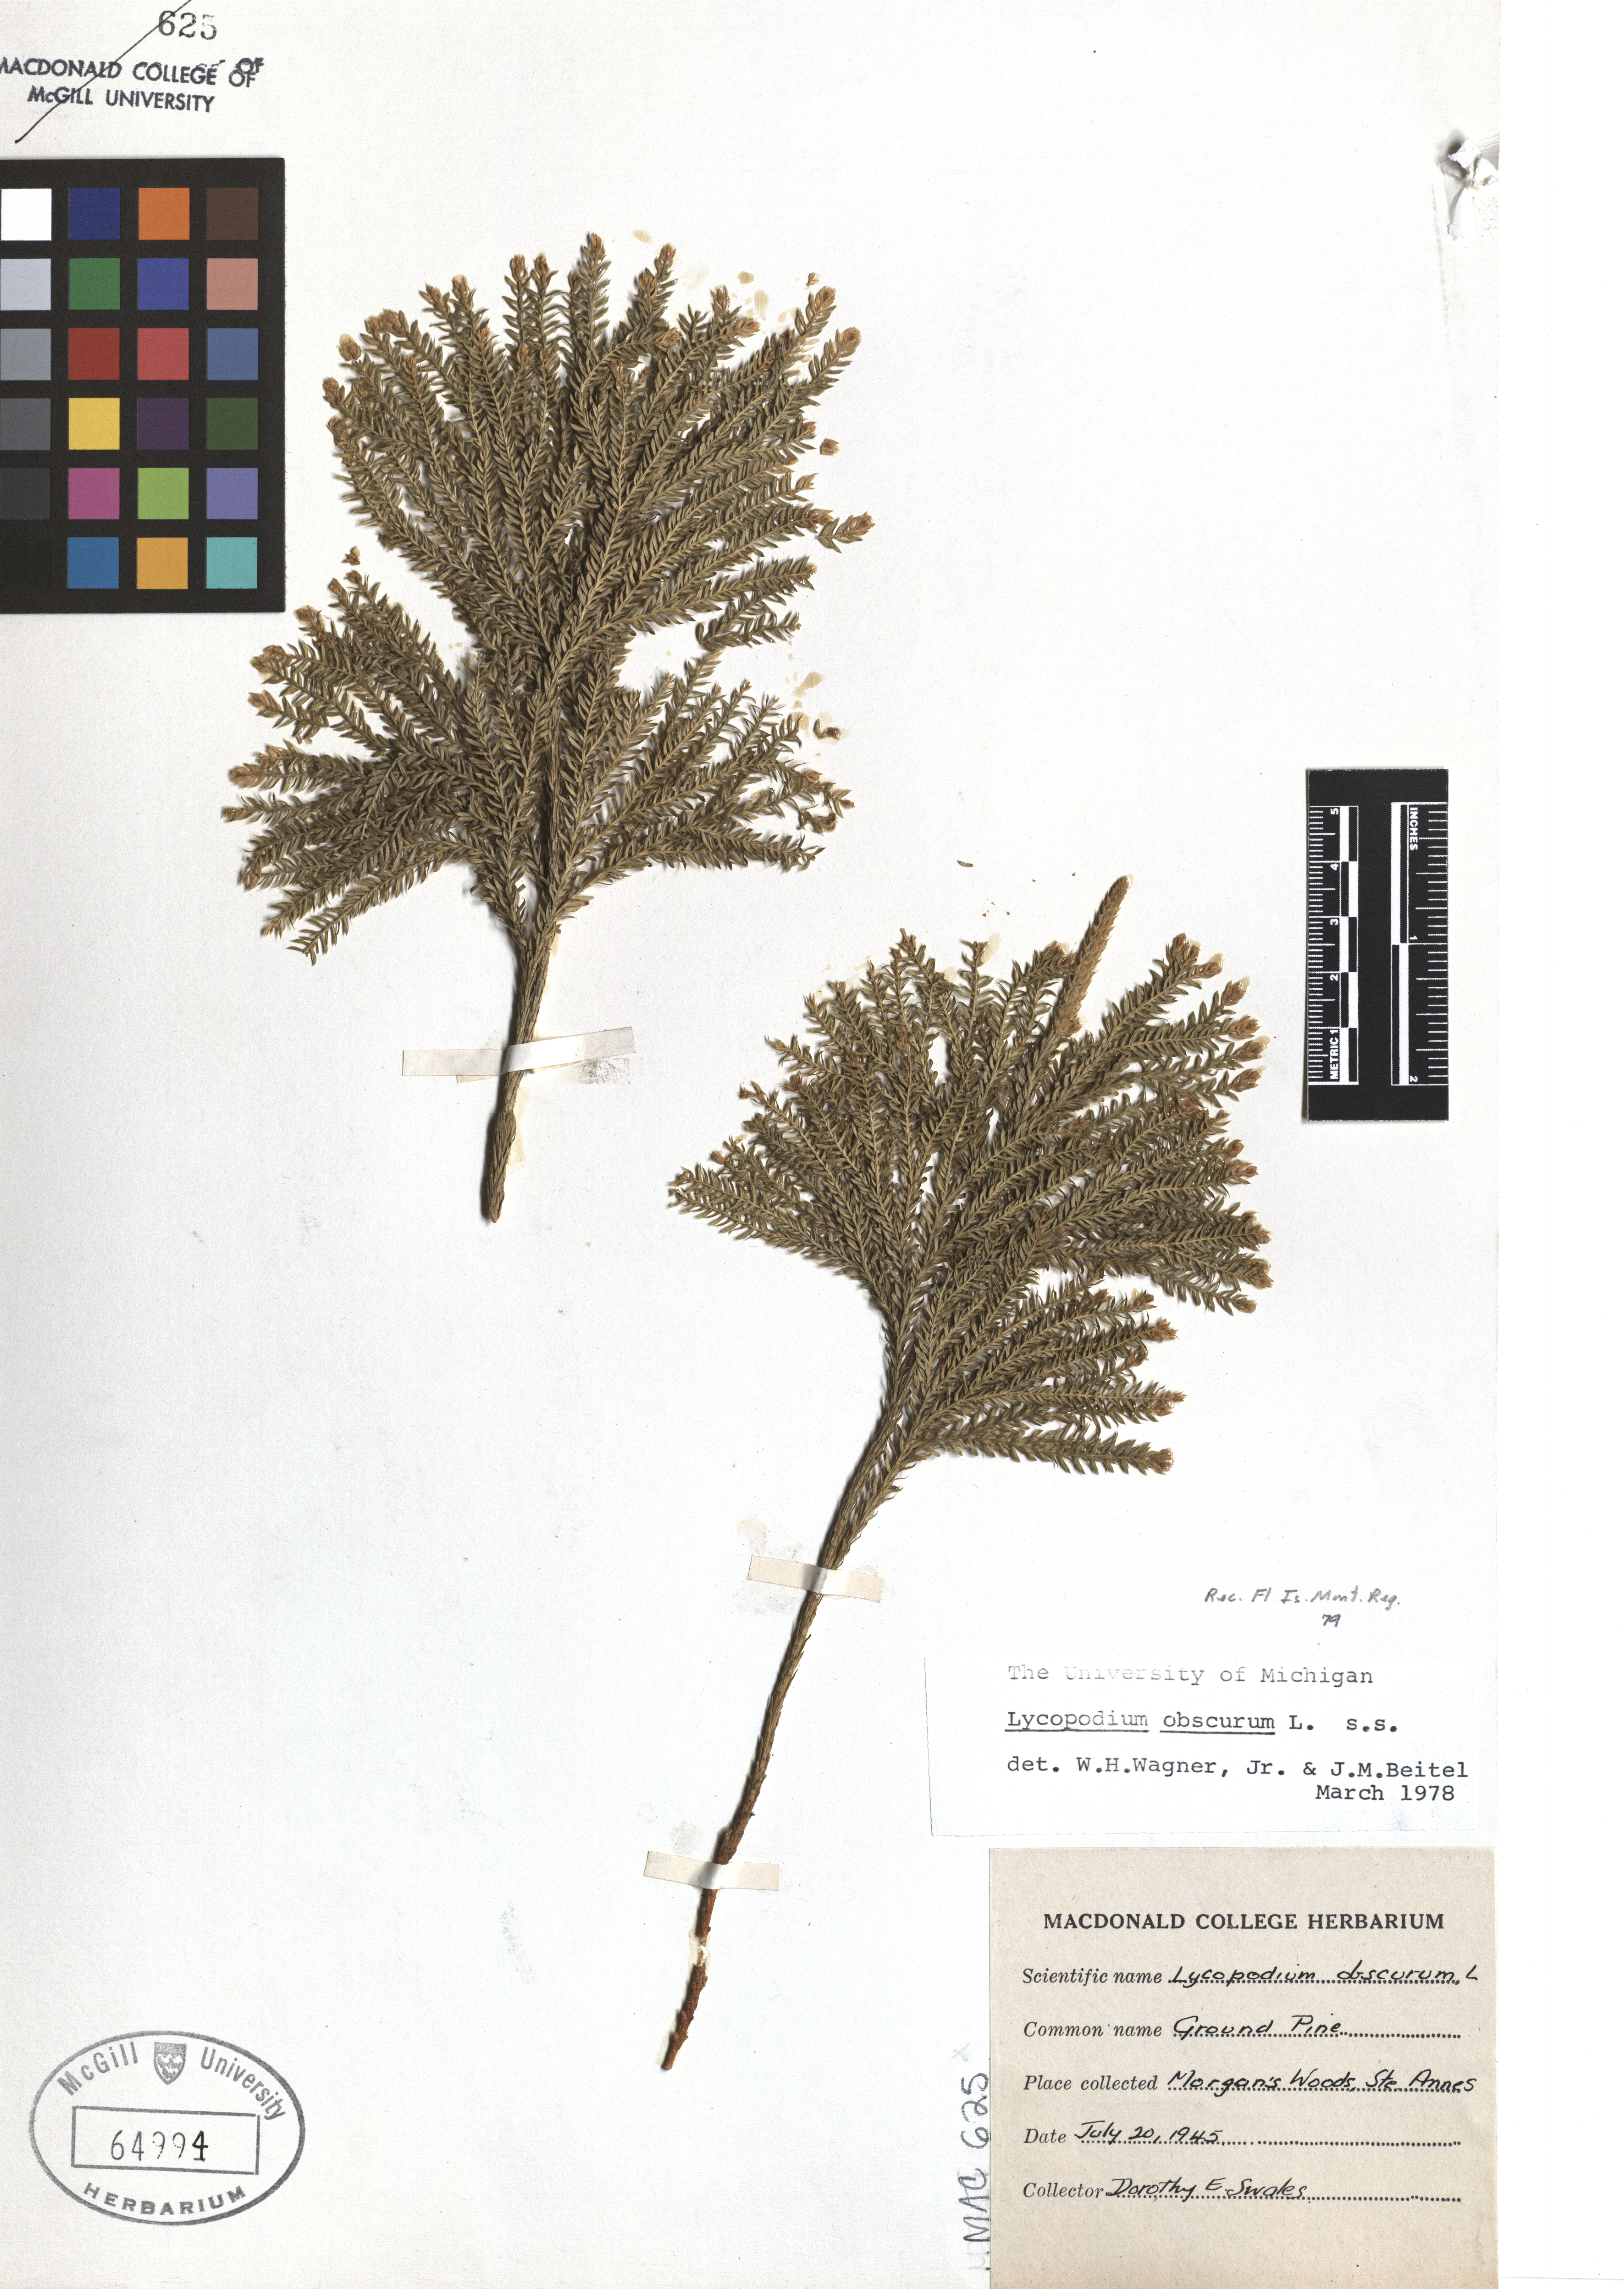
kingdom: Plantae
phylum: Tracheophyta
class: Lycopodiopsida
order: Lycopodiales
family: Lycopodiaceae
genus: Dendrolycopodium
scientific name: Dendrolycopodium obscurum
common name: Common ground-pine
